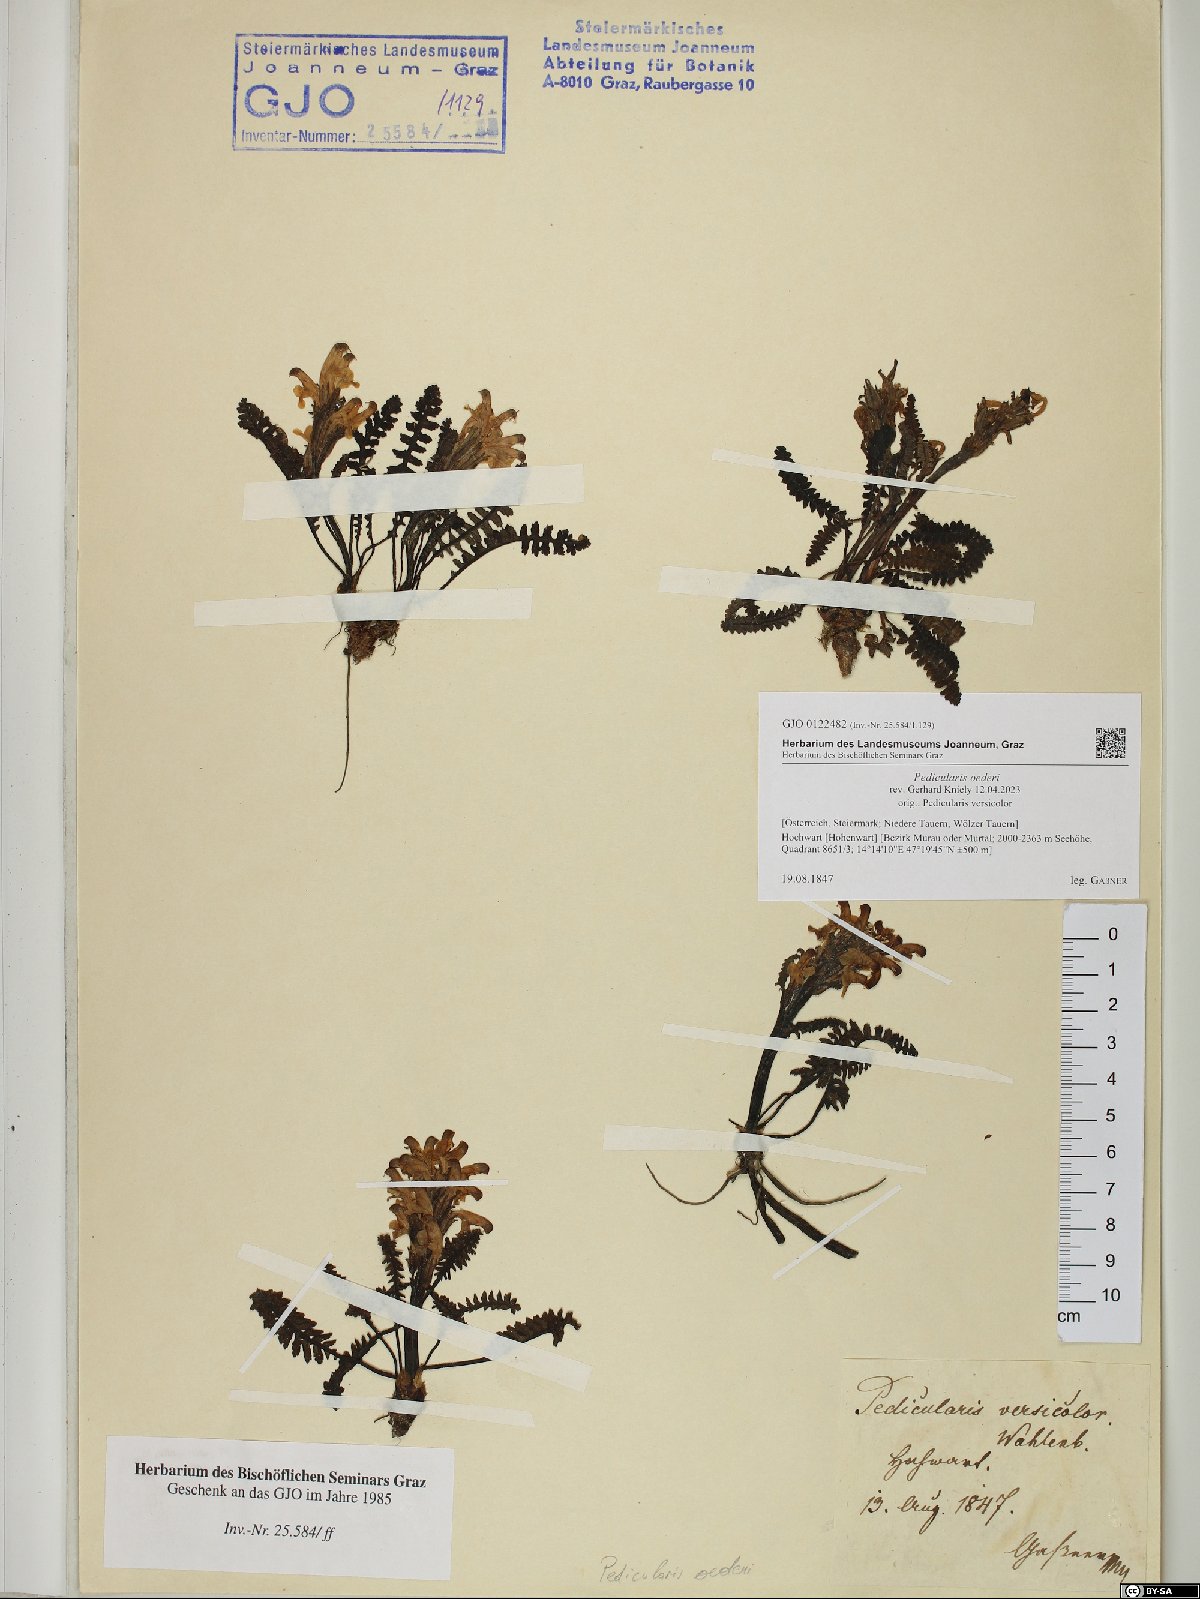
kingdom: Plantae
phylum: Tracheophyta
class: Magnoliopsida
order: Lamiales
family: Orobanchaceae
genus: Pedicularis
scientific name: Pedicularis oederi
